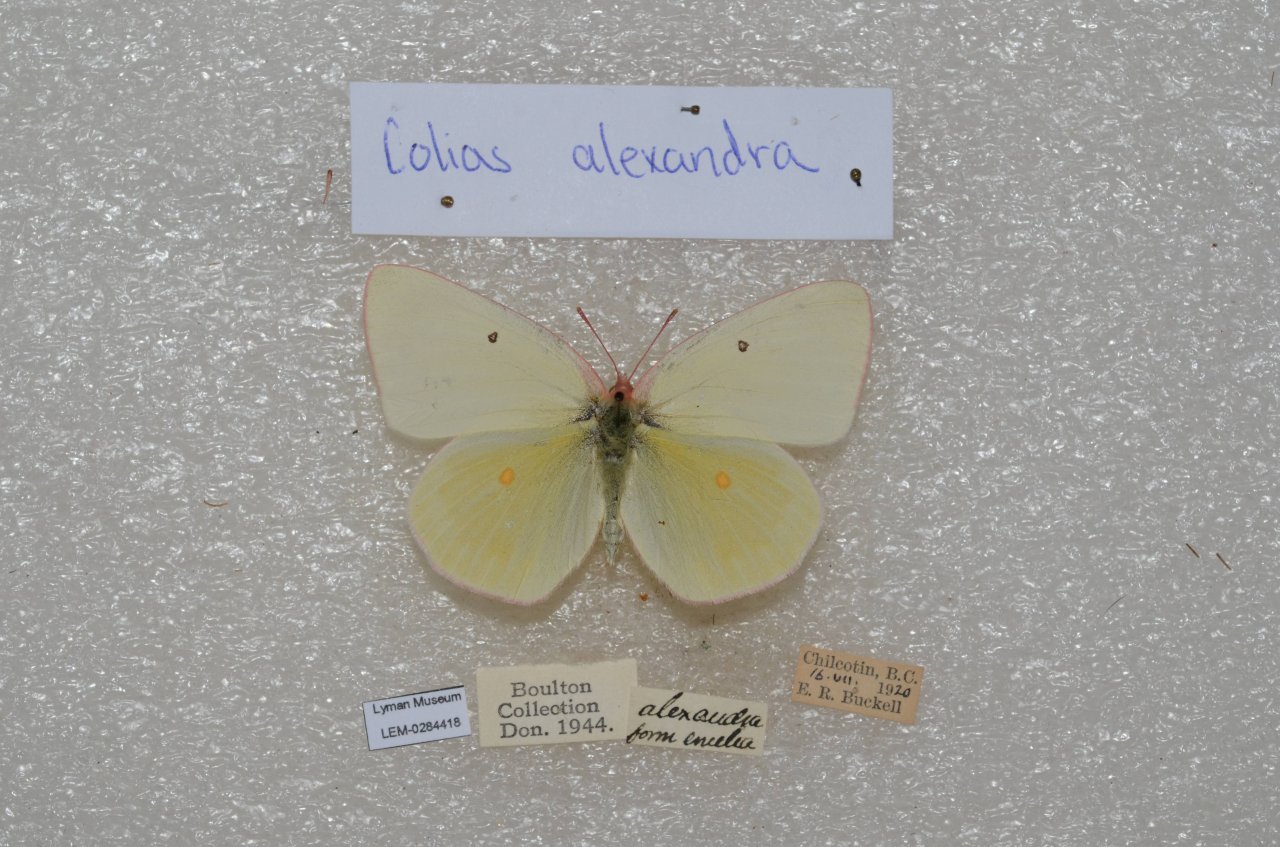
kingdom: Animalia
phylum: Arthropoda
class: Insecta
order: Lepidoptera
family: Pieridae
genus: Colias
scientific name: Colias alexandra
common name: Queen Alexandra's Sulphur
